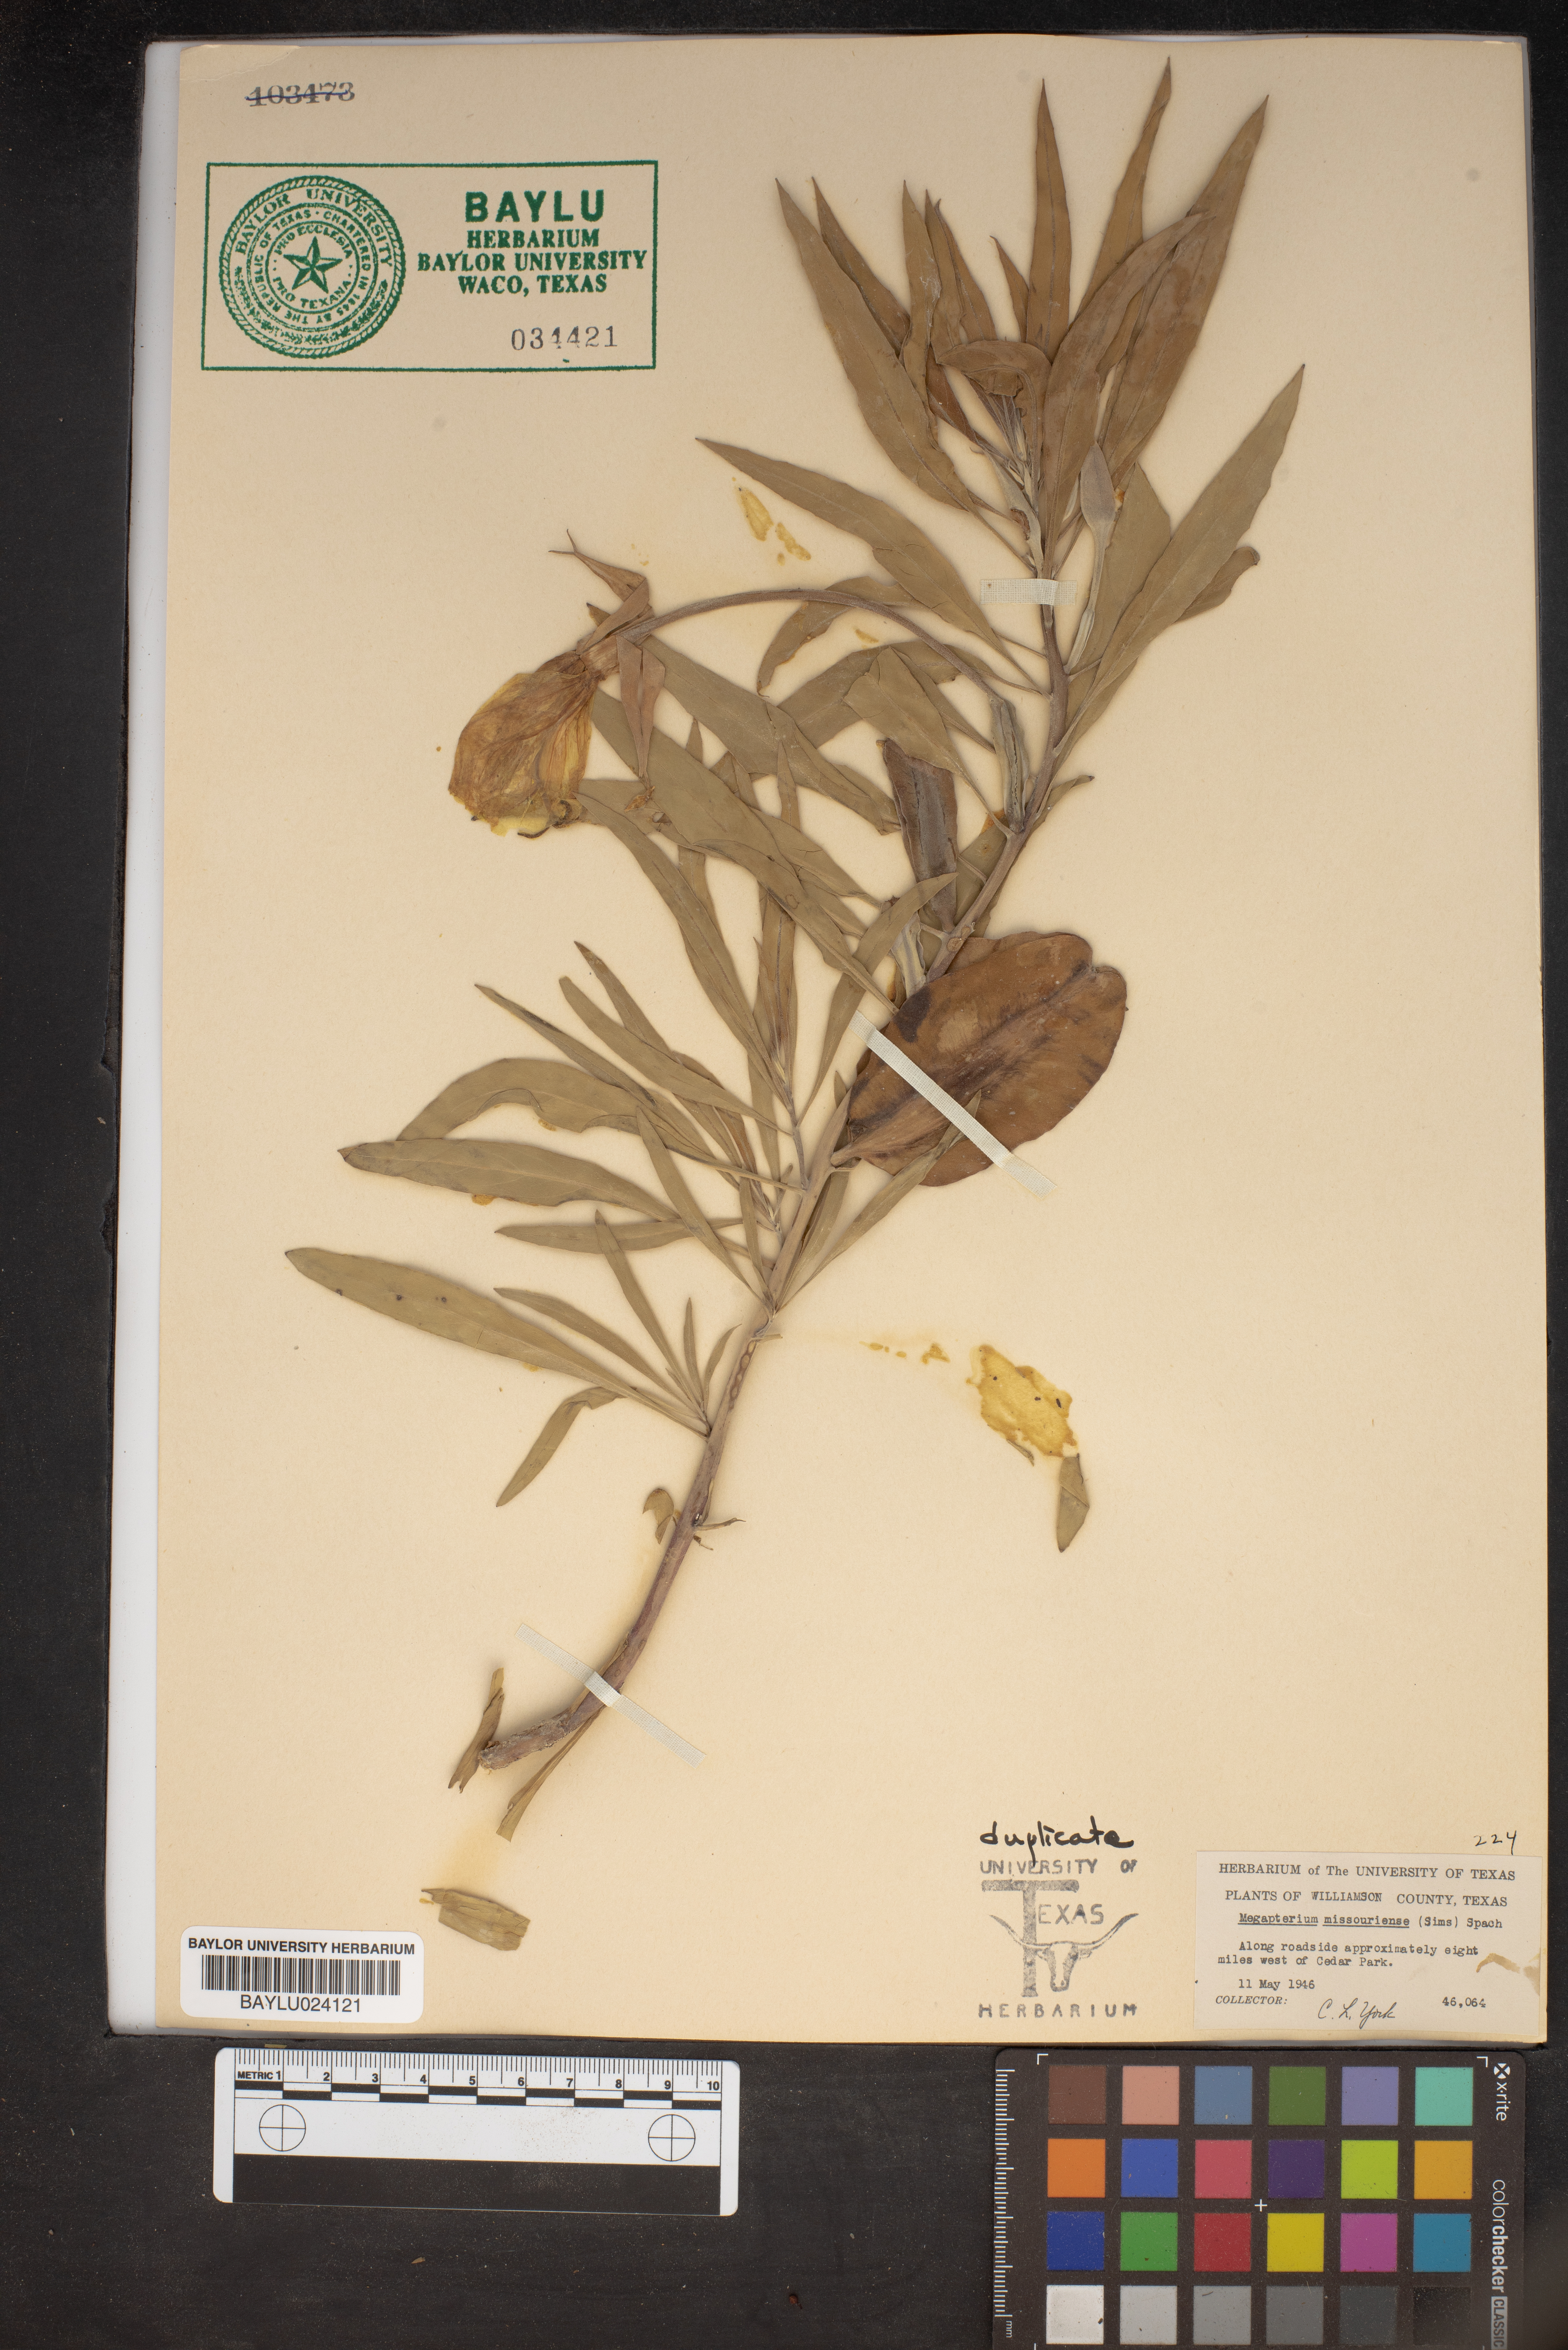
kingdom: Plantae
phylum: Tracheophyta
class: Magnoliopsida
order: Myrtales
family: Onagraceae
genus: Oenothera
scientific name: Oenothera macrocarpa
